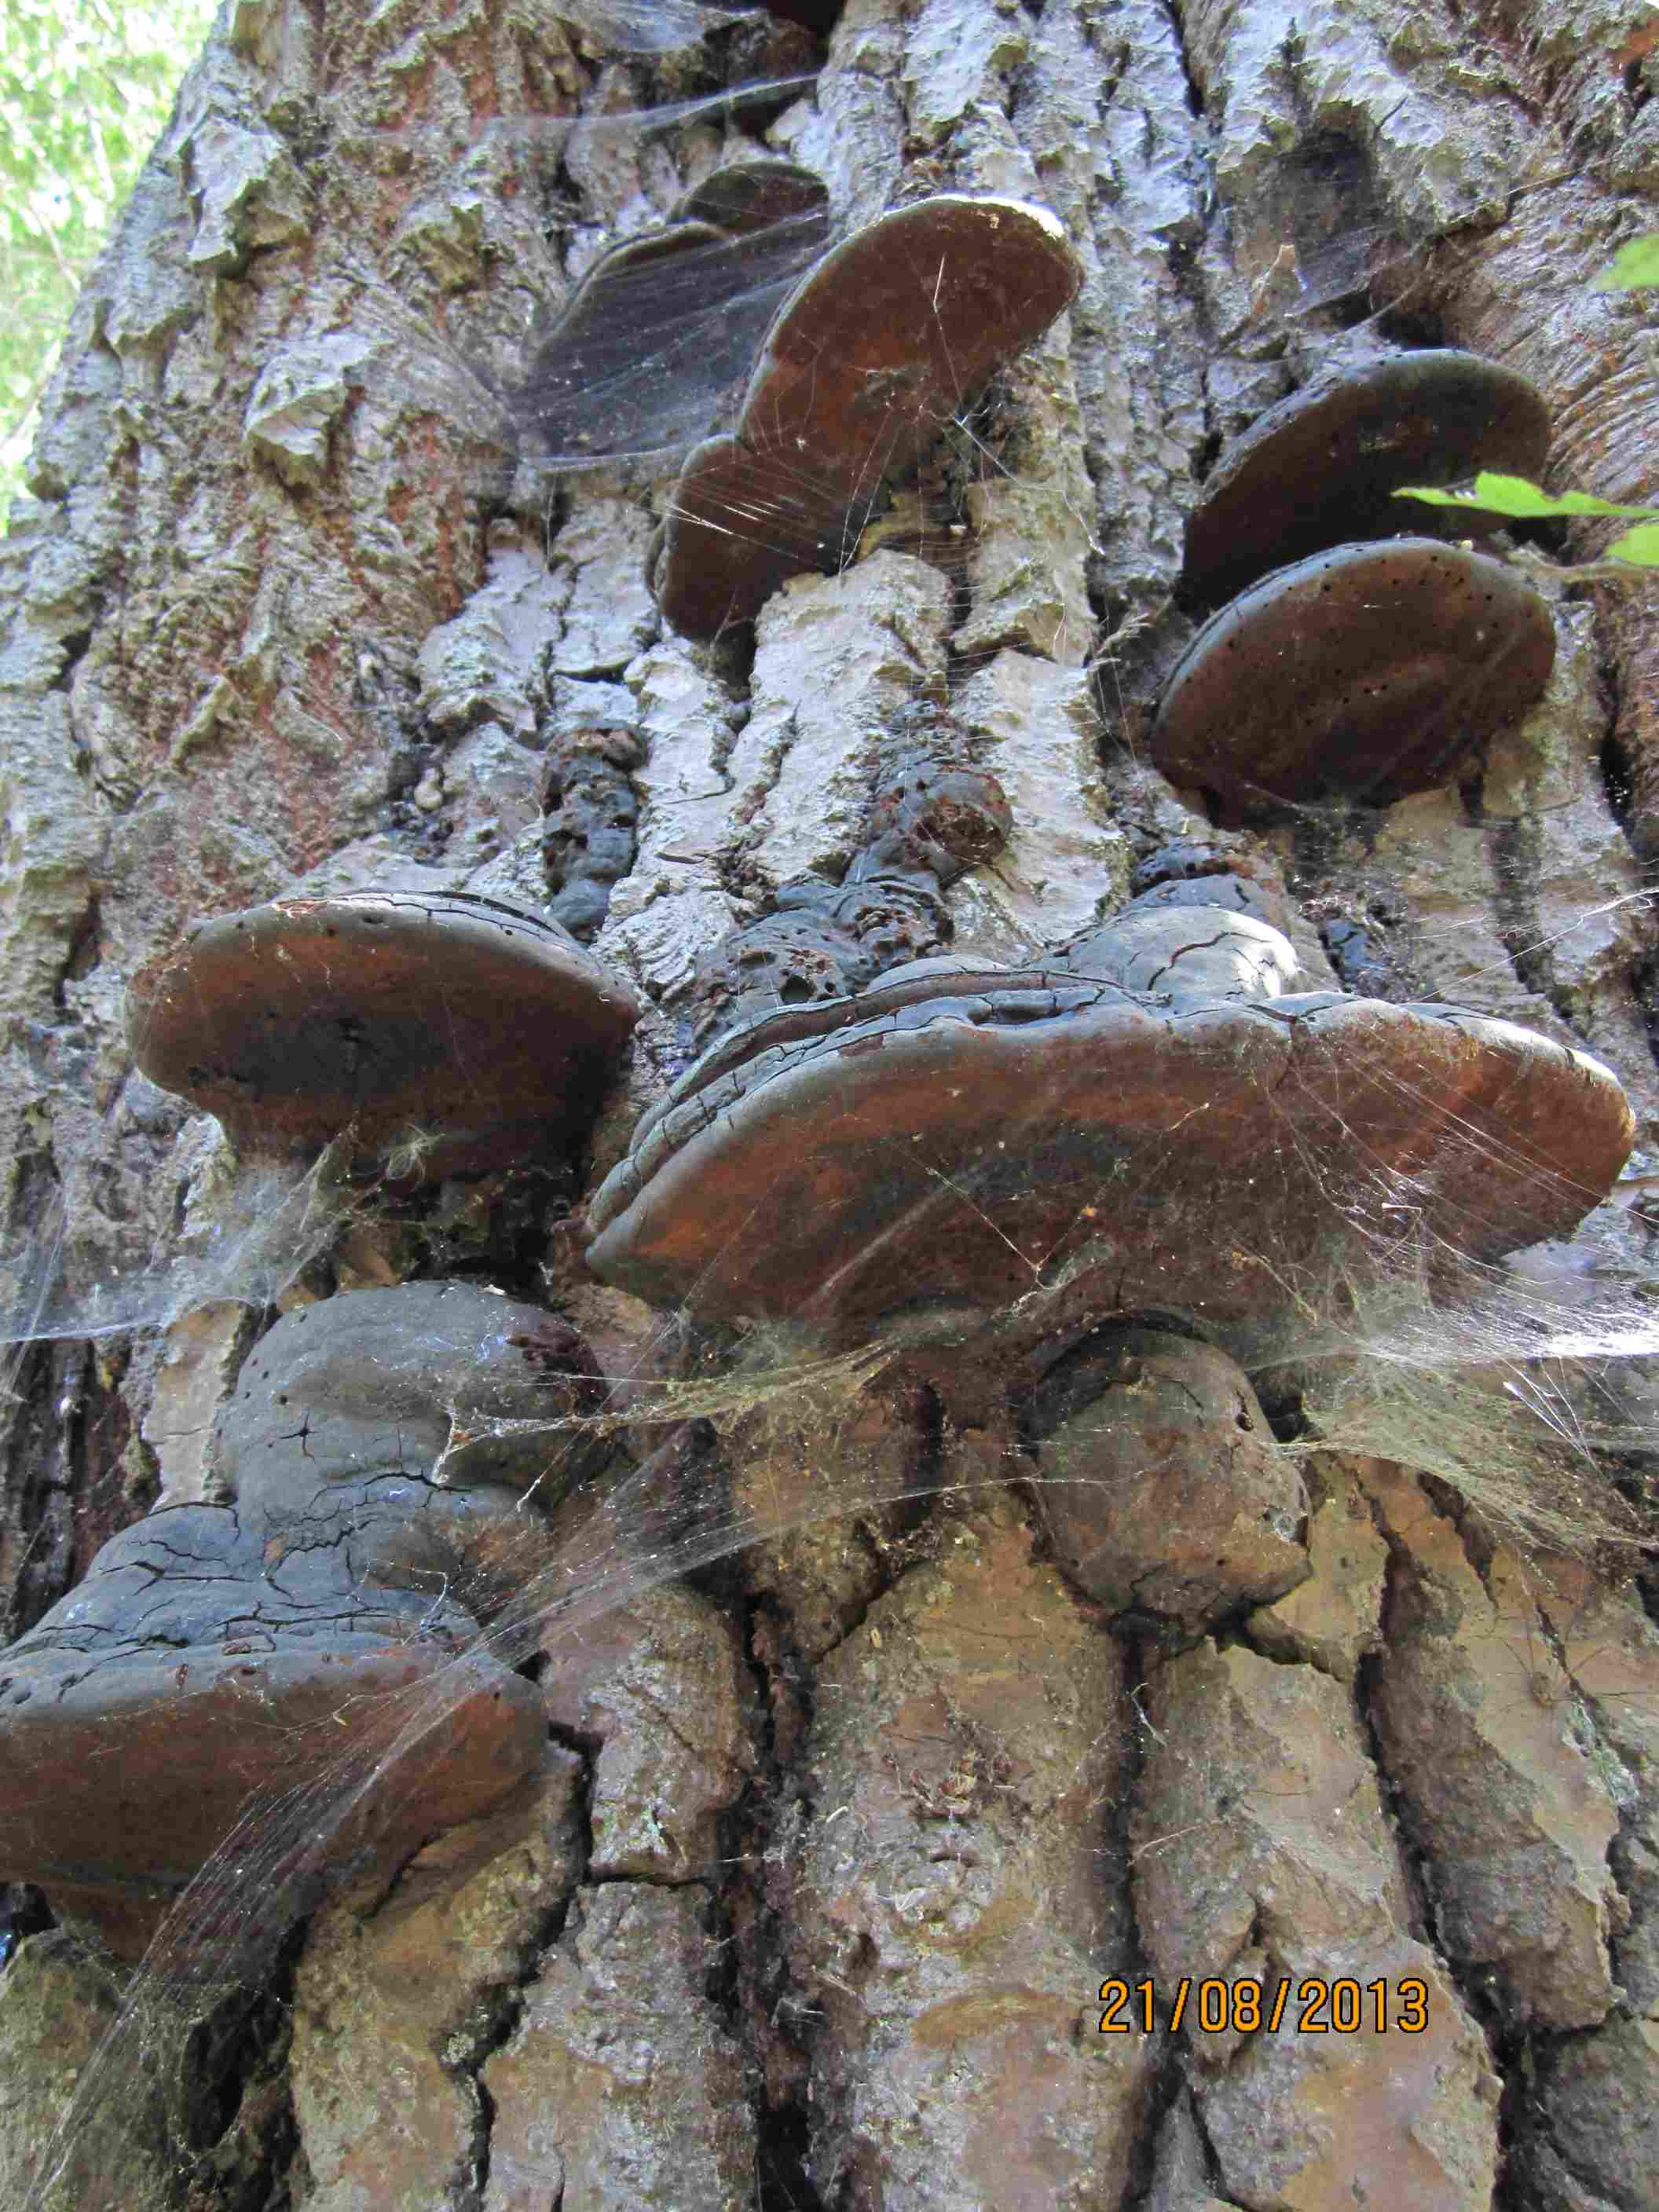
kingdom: Fungi
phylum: Basidiomycota
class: Agaricomycetes
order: Hymenochaetales
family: Hymenochaetaceae
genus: Phellinus
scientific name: Phellinus populicola
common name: poppel-ildporesvamp
